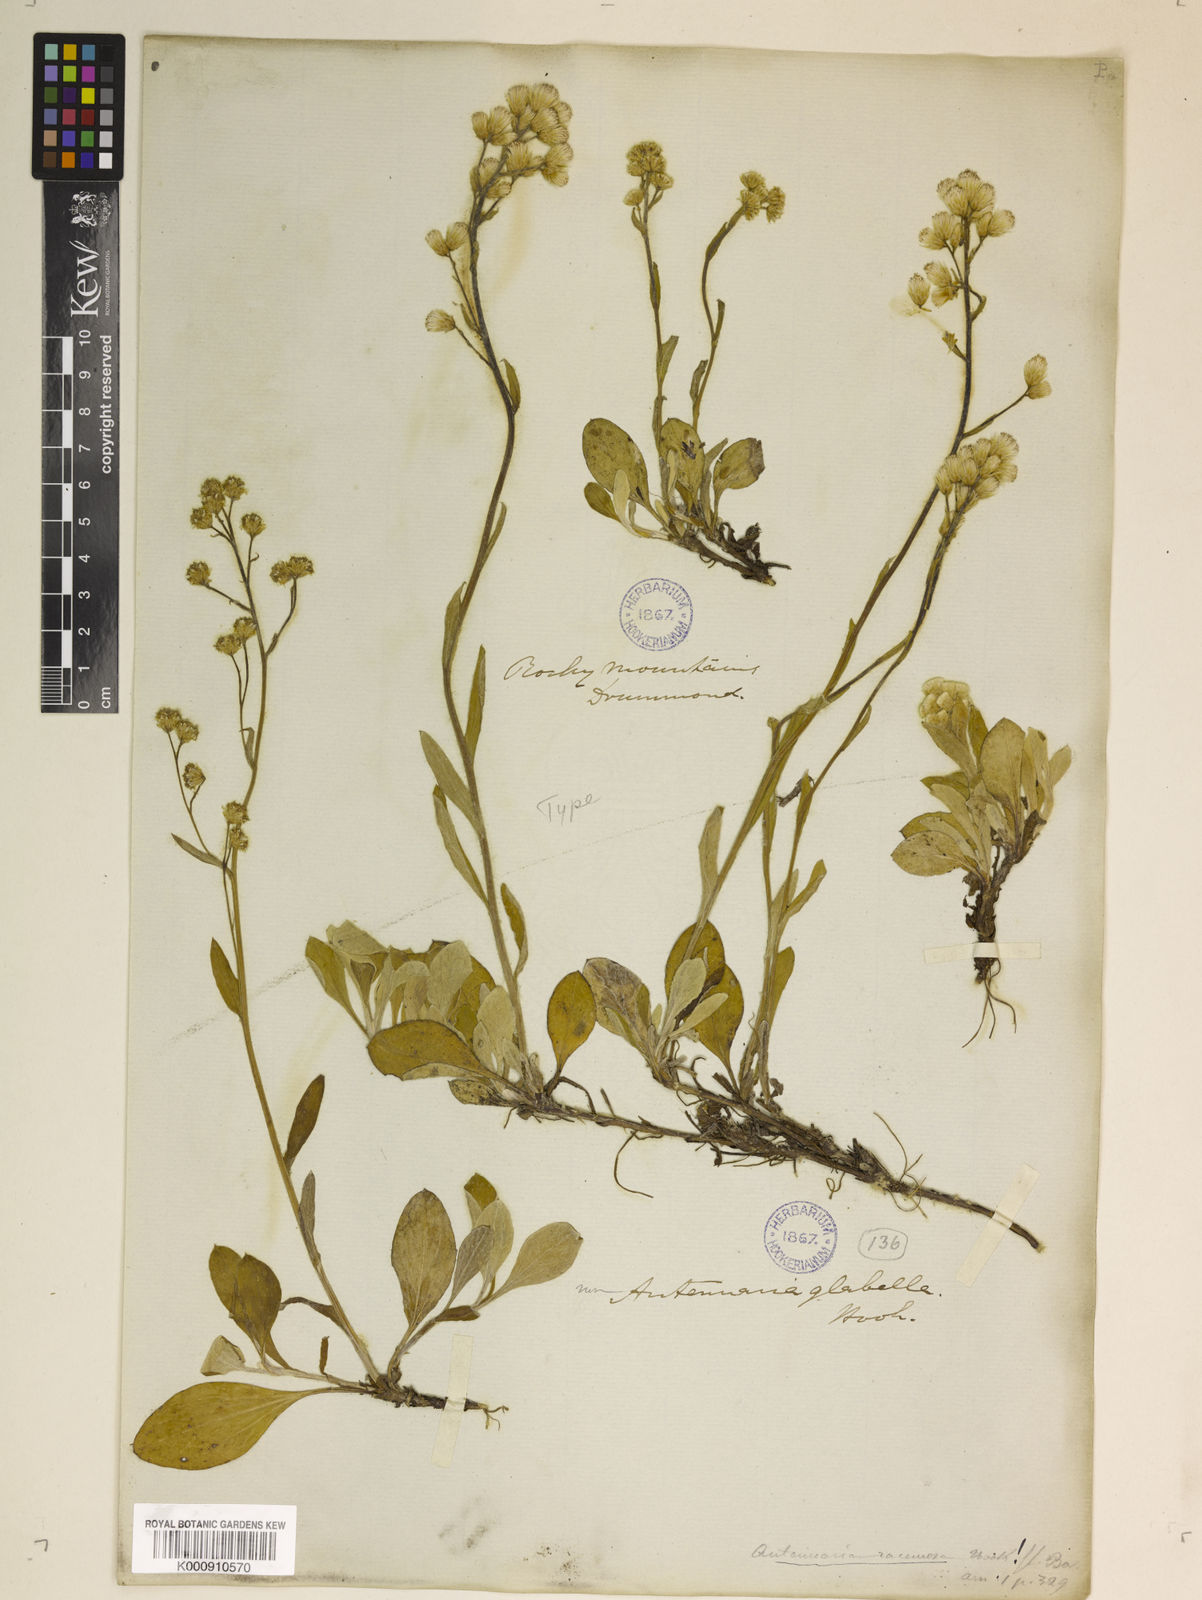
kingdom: Plantae
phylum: Tracheophyta
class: Magnoliopsida
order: Asterales
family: Asteraceae
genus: Antennaria
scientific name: Antennaria racemosa
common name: Racemose pussytoes
